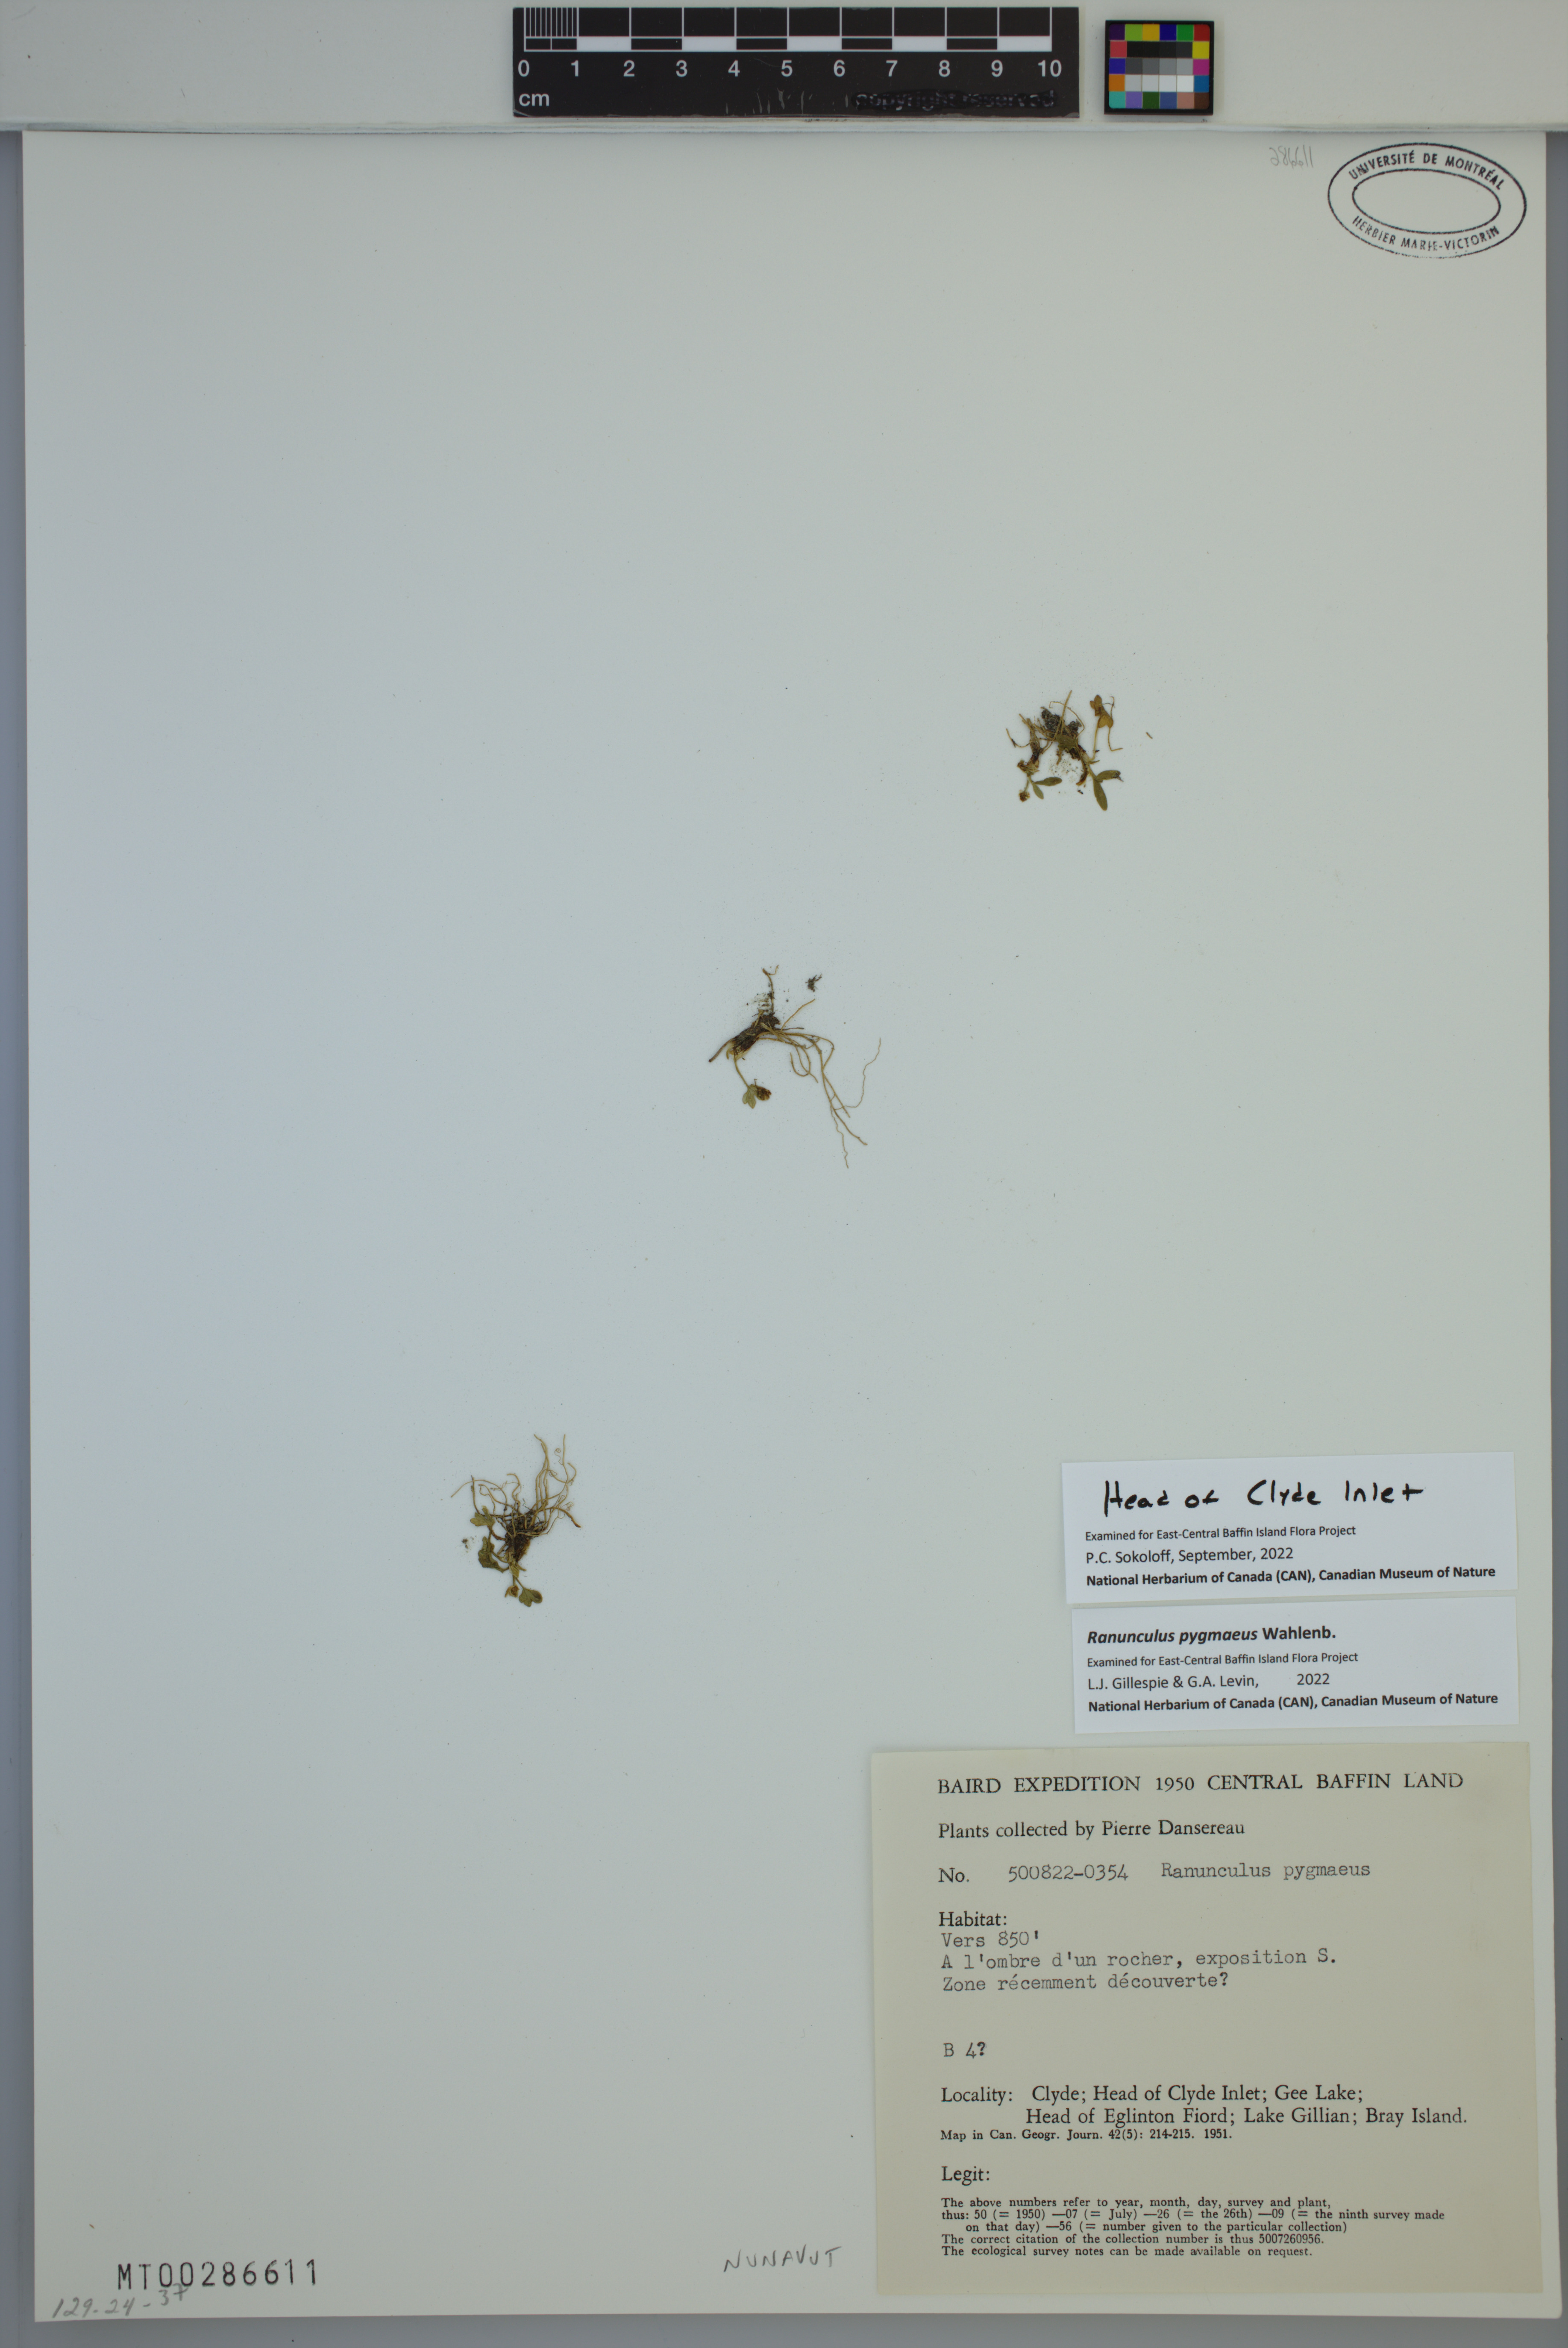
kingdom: Plantae
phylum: Tracheophyta
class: Magnoliopsida
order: Ranunculales
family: Ranunculaceae
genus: Ranunculus
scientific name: Ranunculus pygmaeus
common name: Dwarf buttercup
